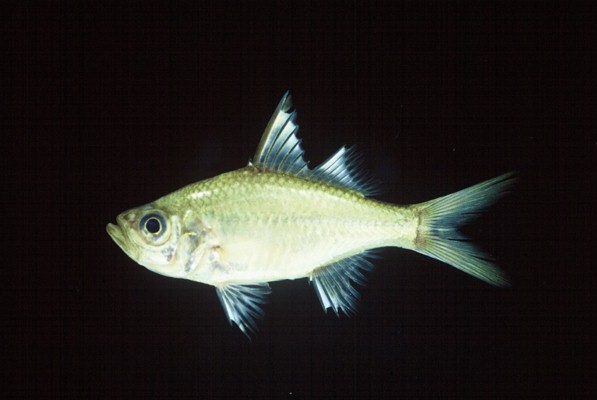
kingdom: Animalia
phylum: Chordata
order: Perciformes
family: Ambassidae
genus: Ambassis
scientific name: Ambassis ambassis
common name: Commerson's glassy perchlet
